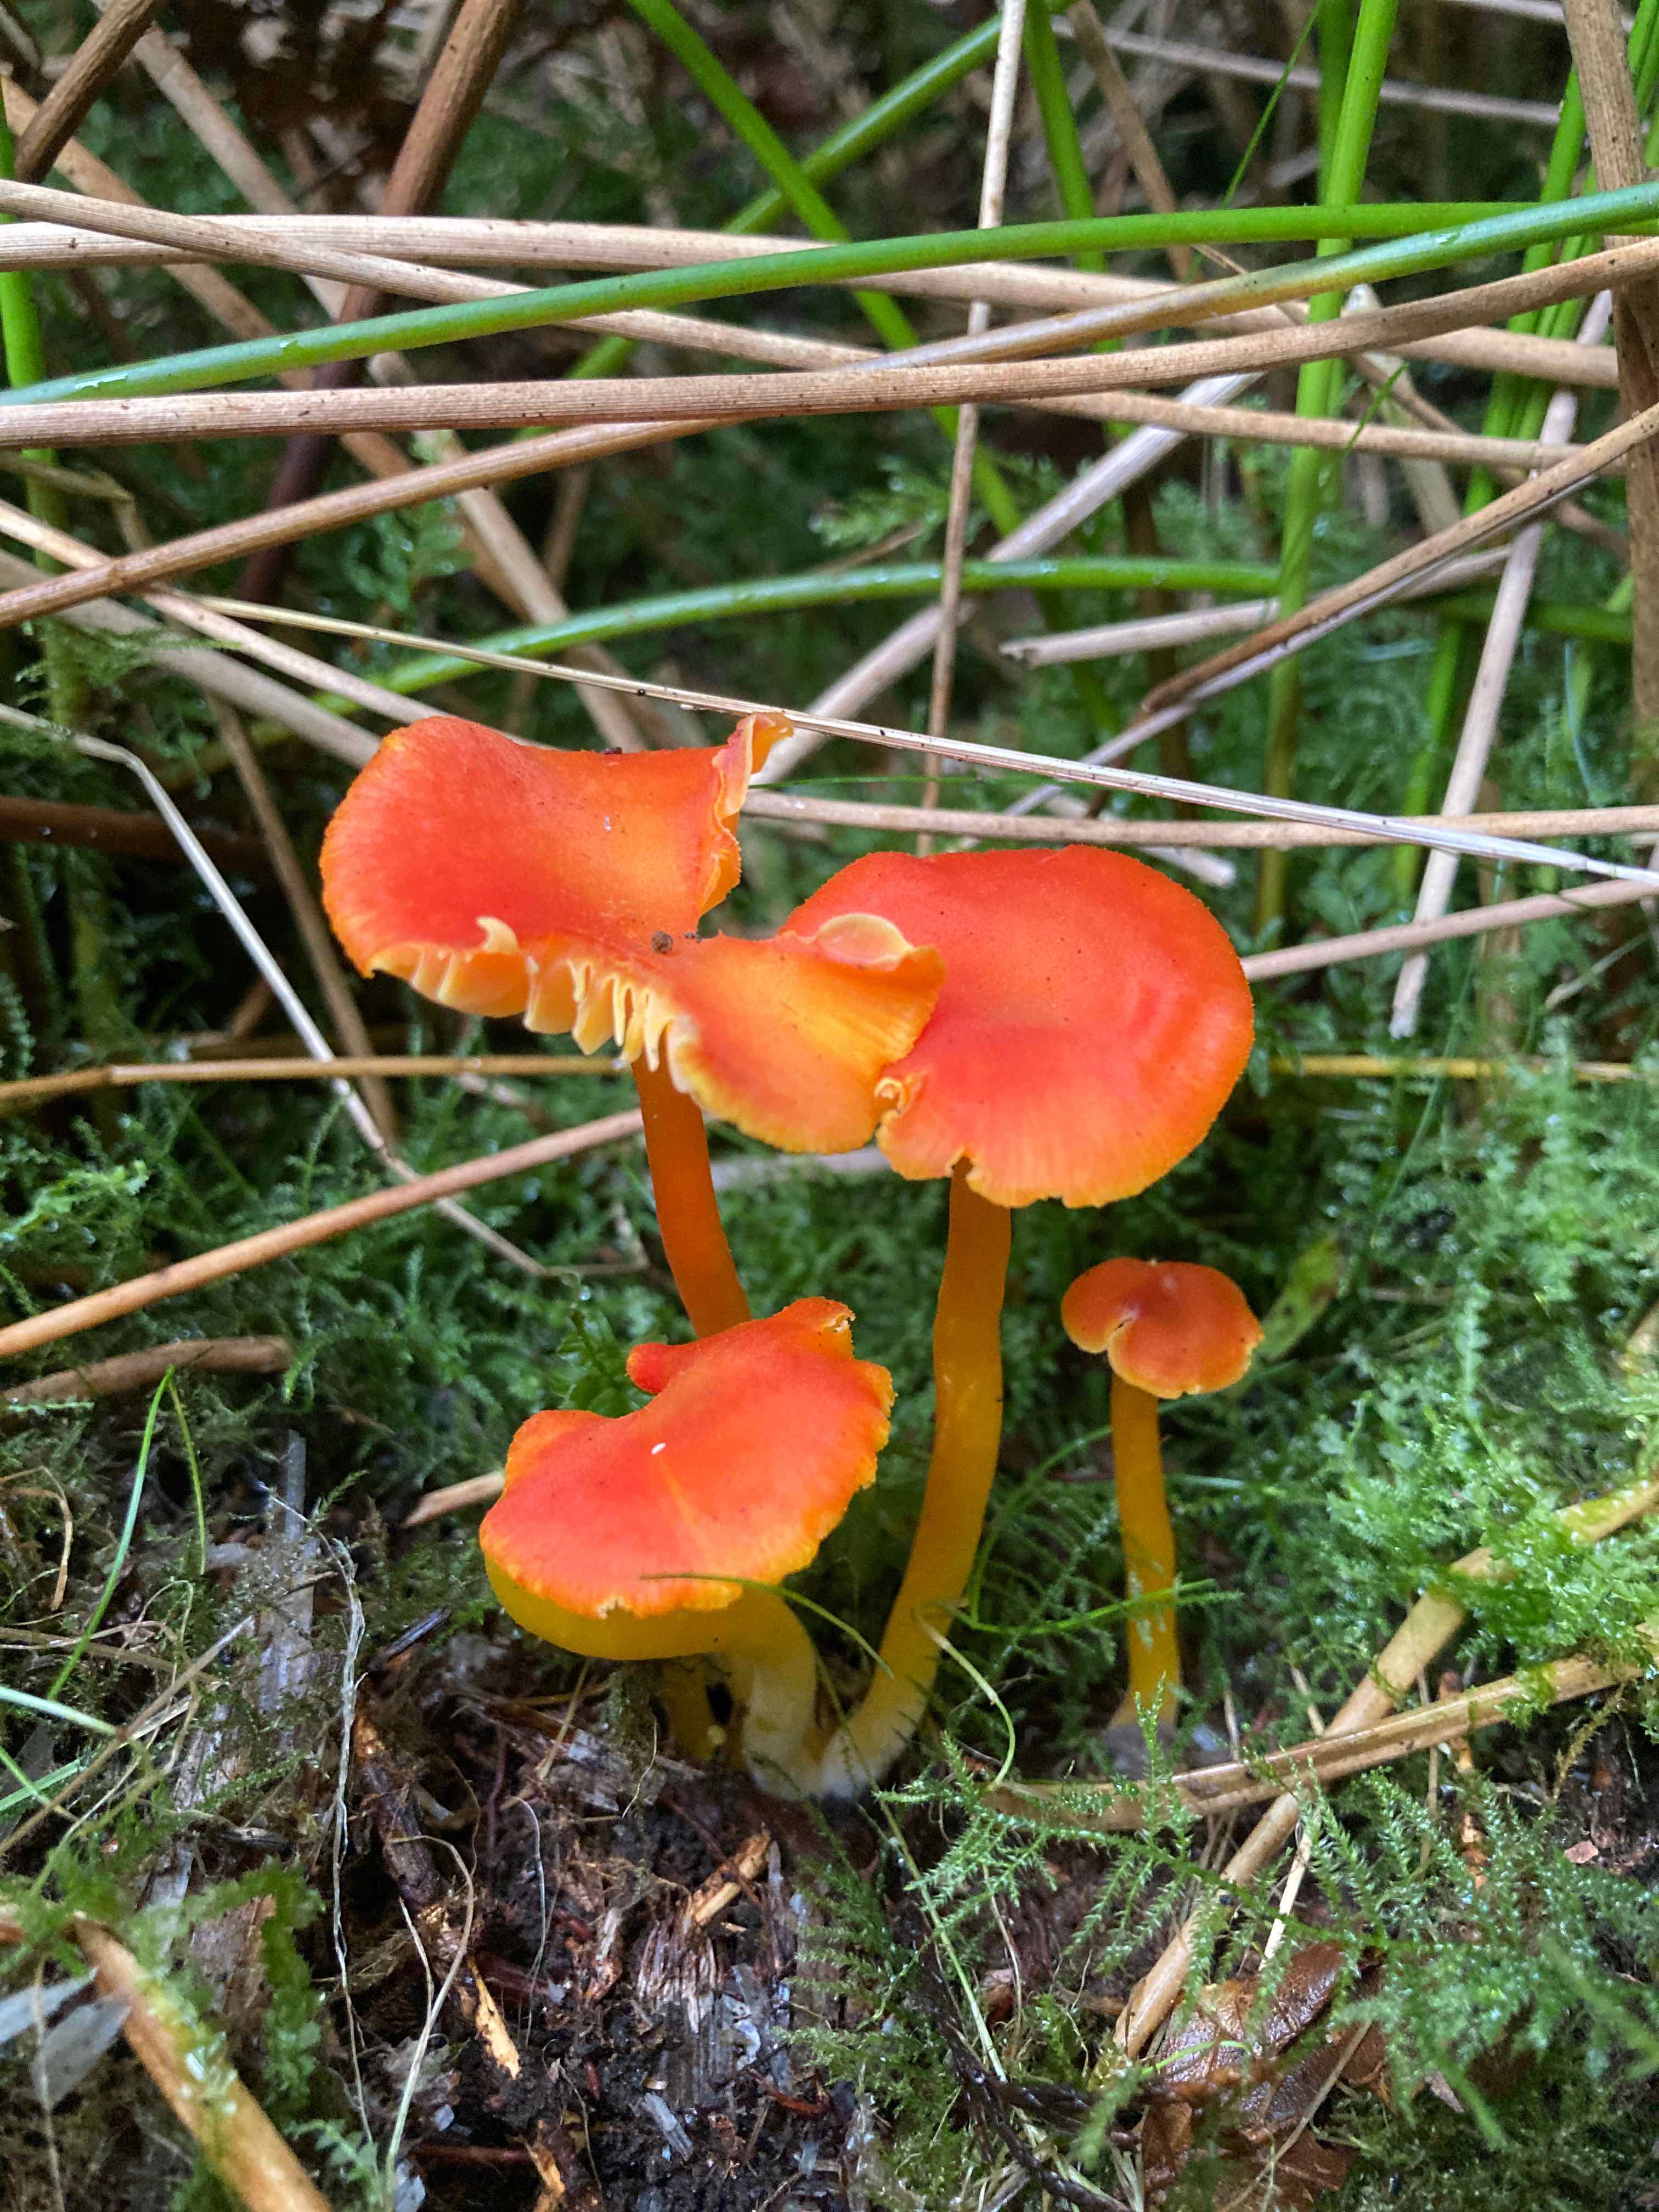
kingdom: Fungi
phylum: Basidiomycota
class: Agaricomycetes
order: Agaricales
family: Hygrophoraceae
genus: Hygrocybe
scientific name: Hygrocybe miniata
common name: mønje-vokshat
